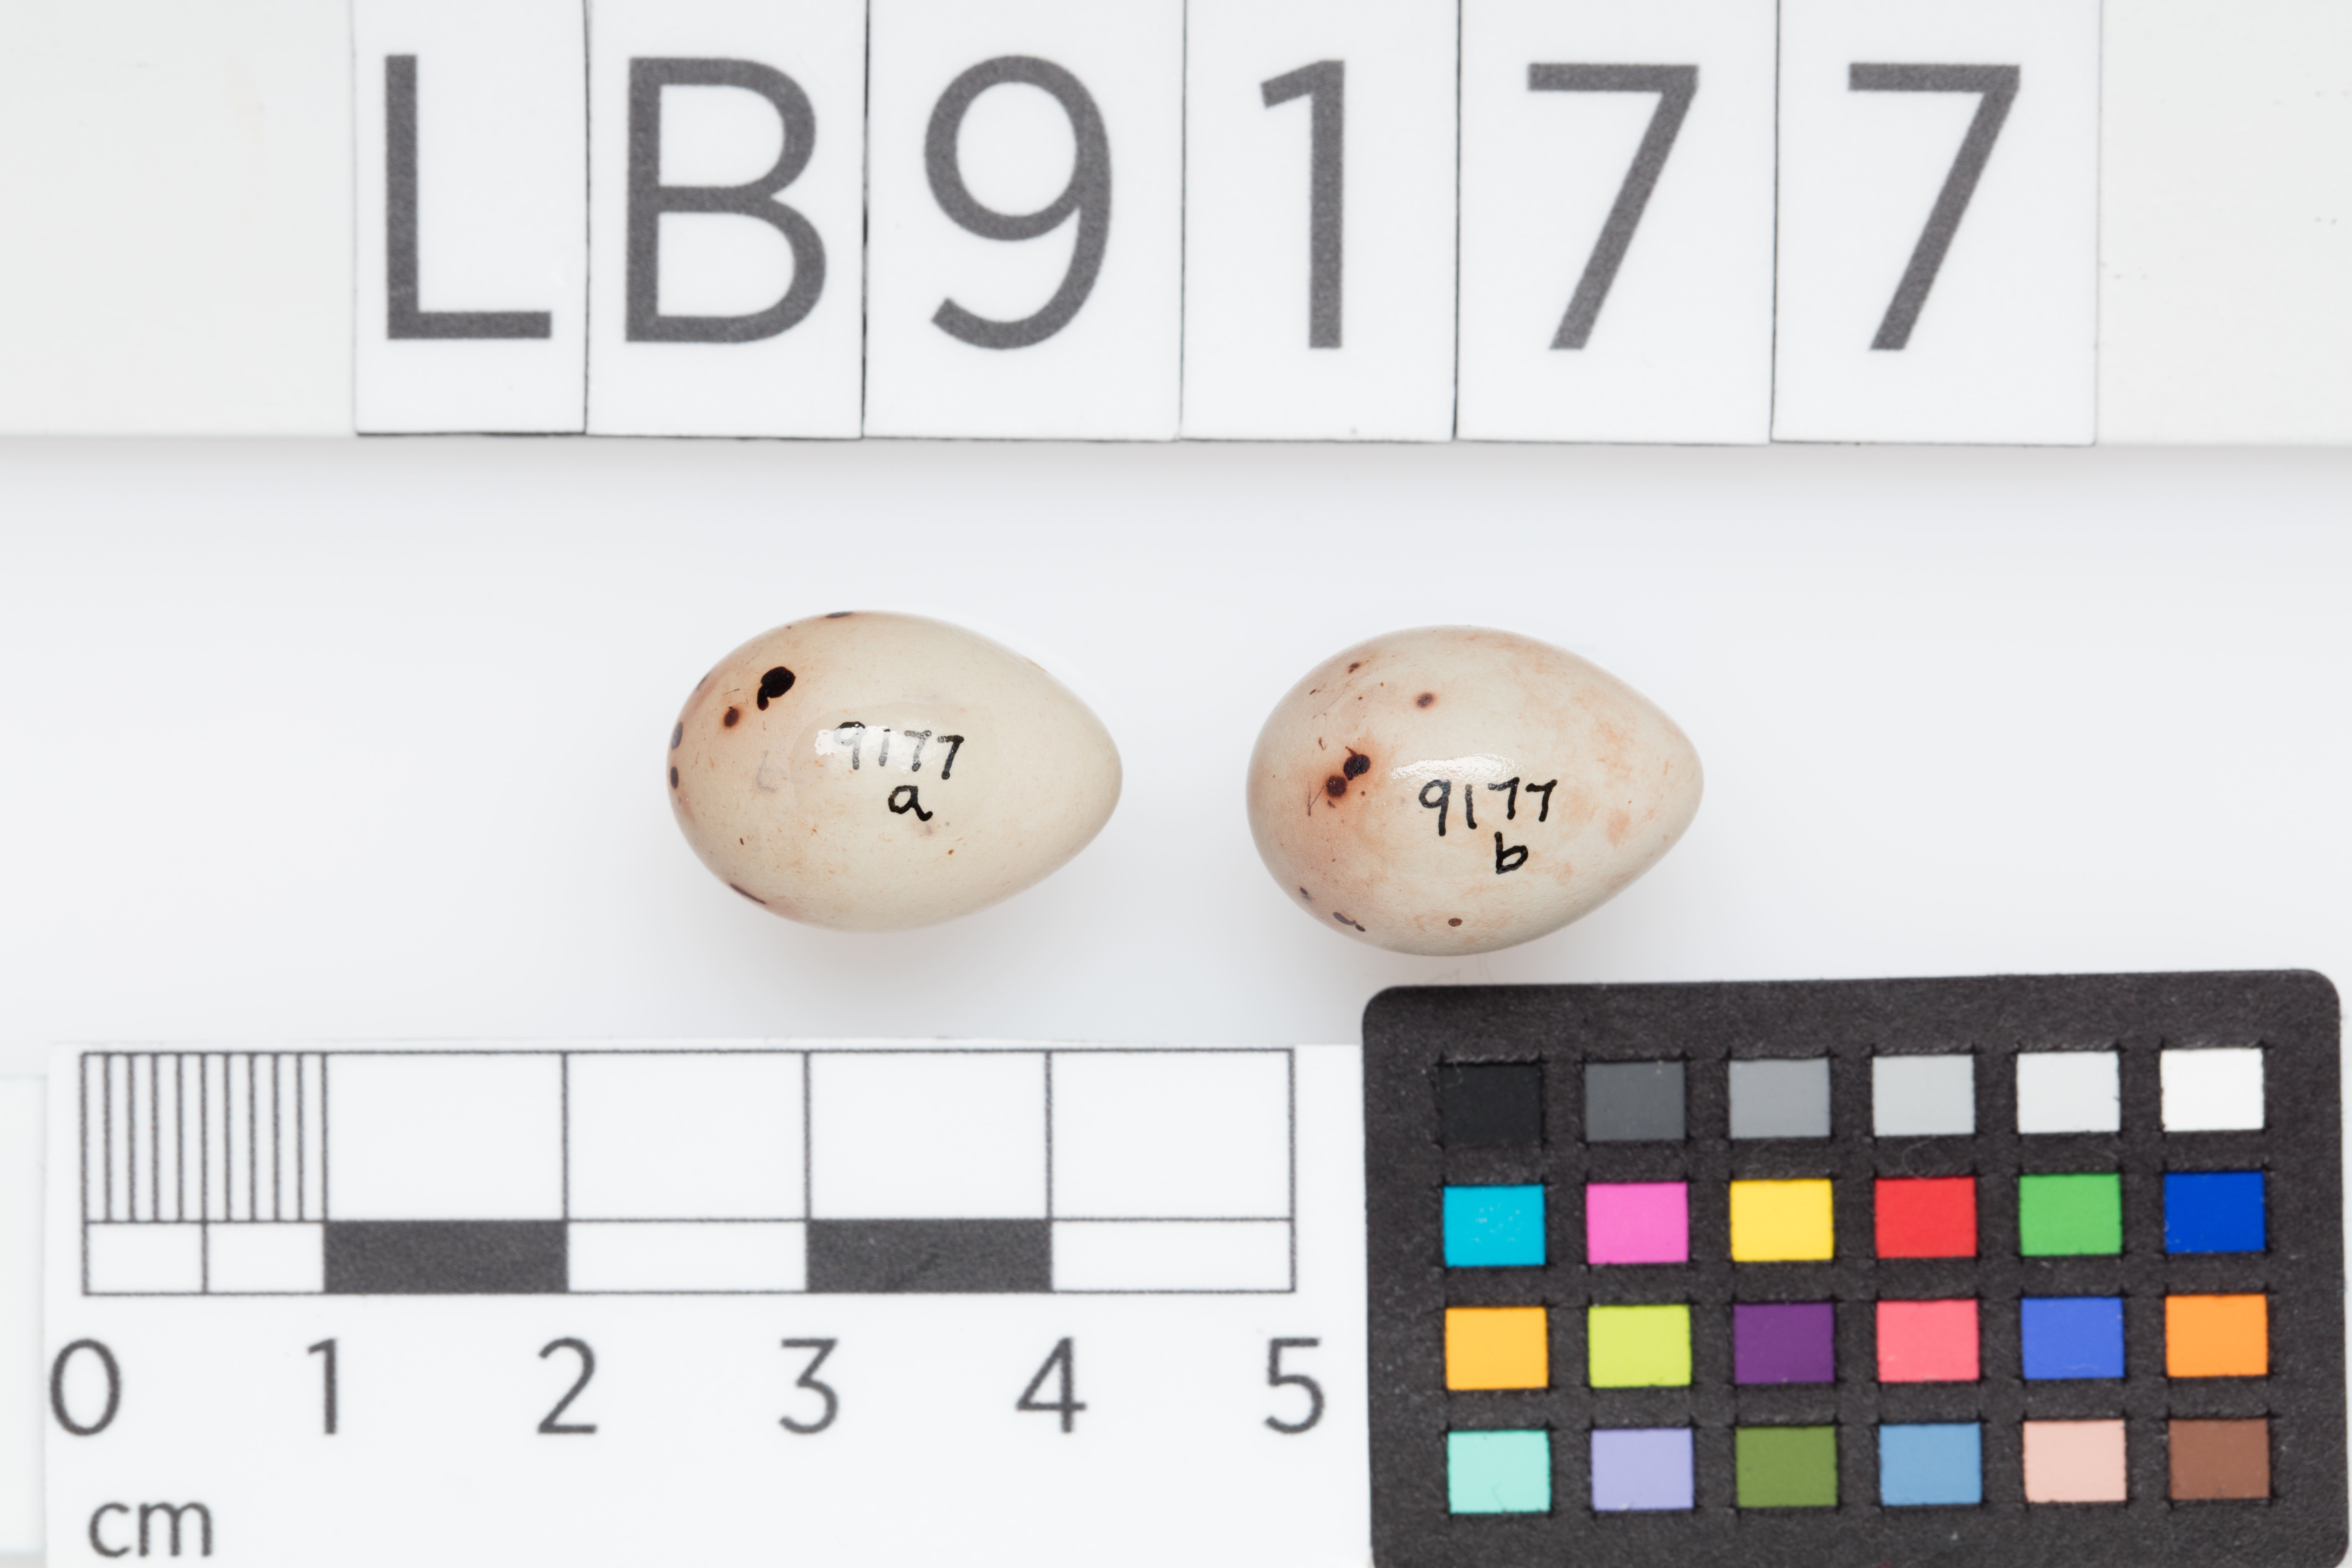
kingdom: Animalia
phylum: Chordata
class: Aves
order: Passeriformes
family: Fringillidae
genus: Fringilla
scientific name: Fringilla coelebs
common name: Common chaffinch
